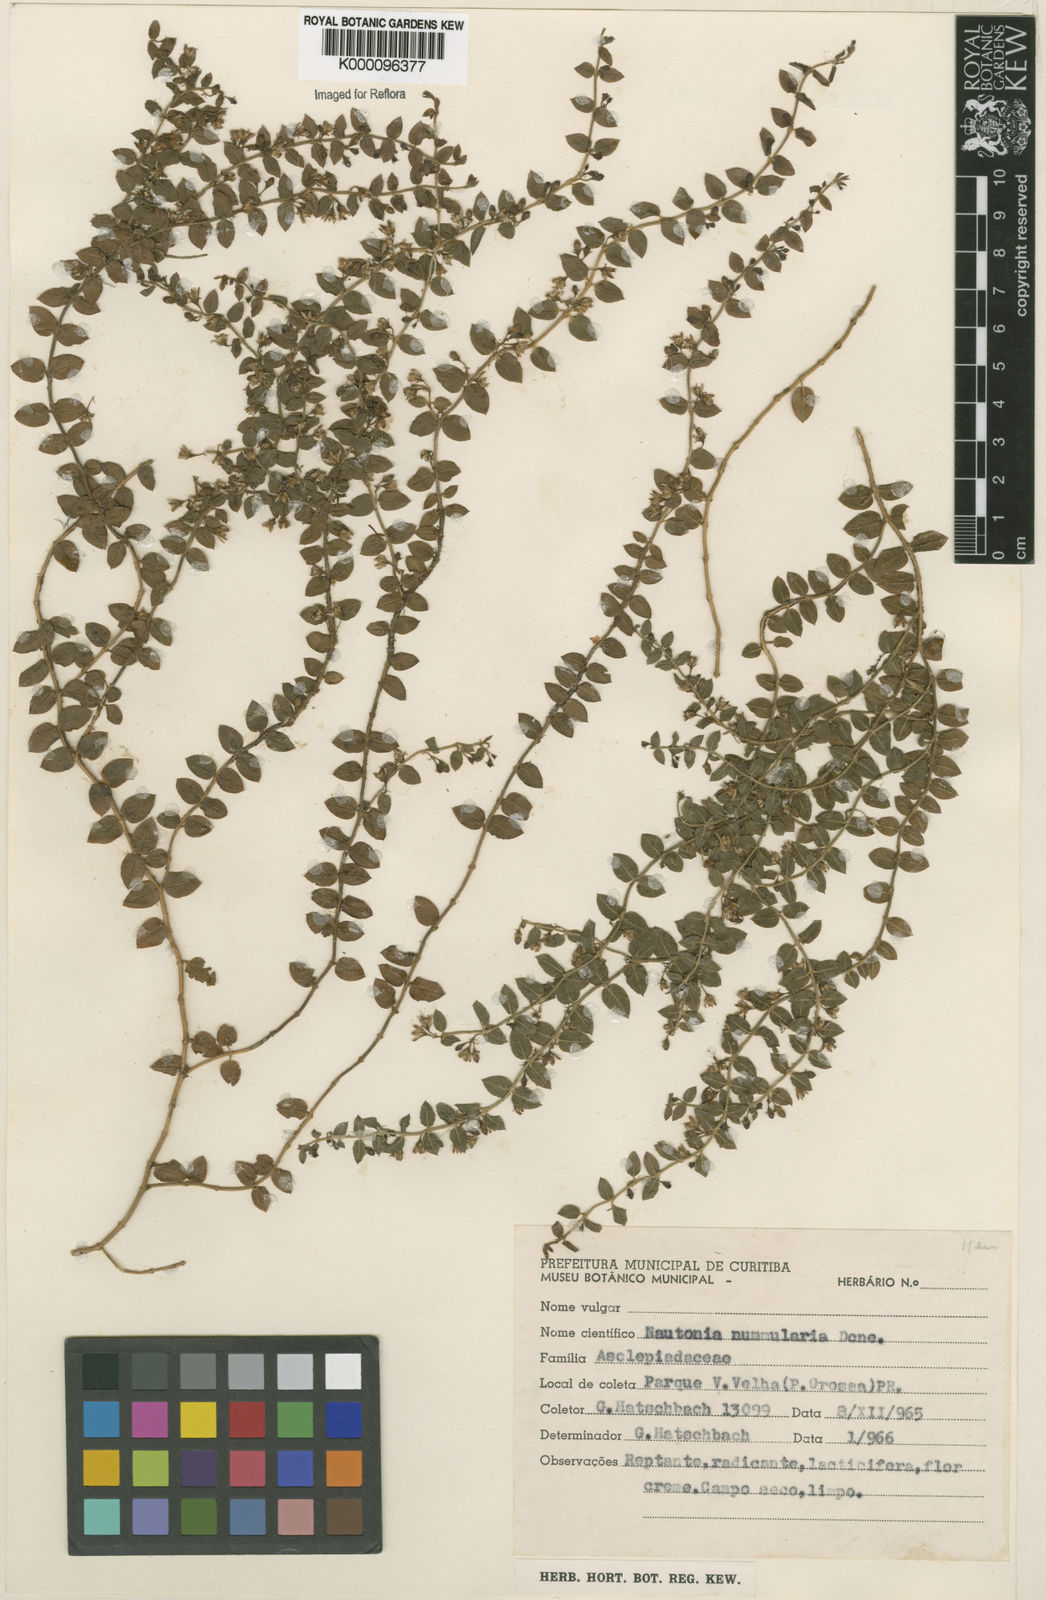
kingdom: Plantae
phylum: Tracheophyta
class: Magnoliopsida
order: Gentianales
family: Apocynaceae
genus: Nautonia
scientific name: Nautonia nummularia
